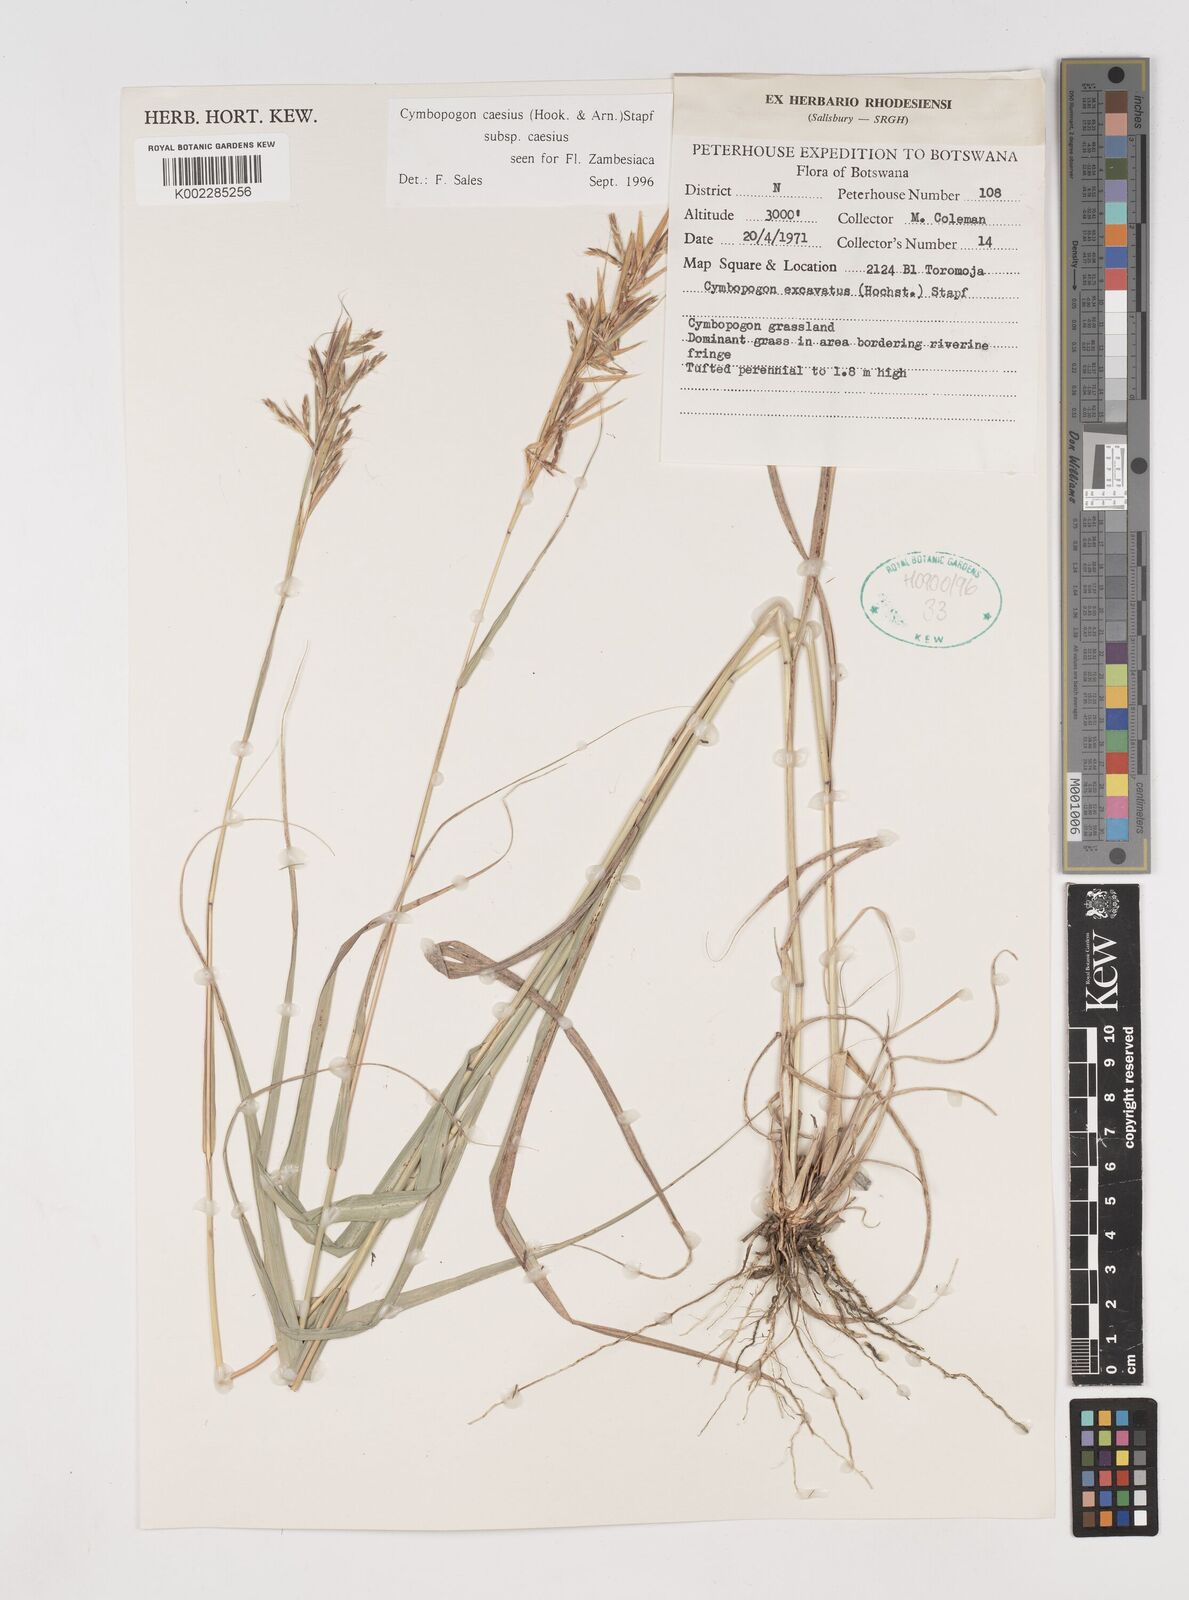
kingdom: Plantae
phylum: Tracheophyta
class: Liliopsida
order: Poales
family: Poaceae
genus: Cymbopogon
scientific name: Cymbopogon caesius
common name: Kachi grass
